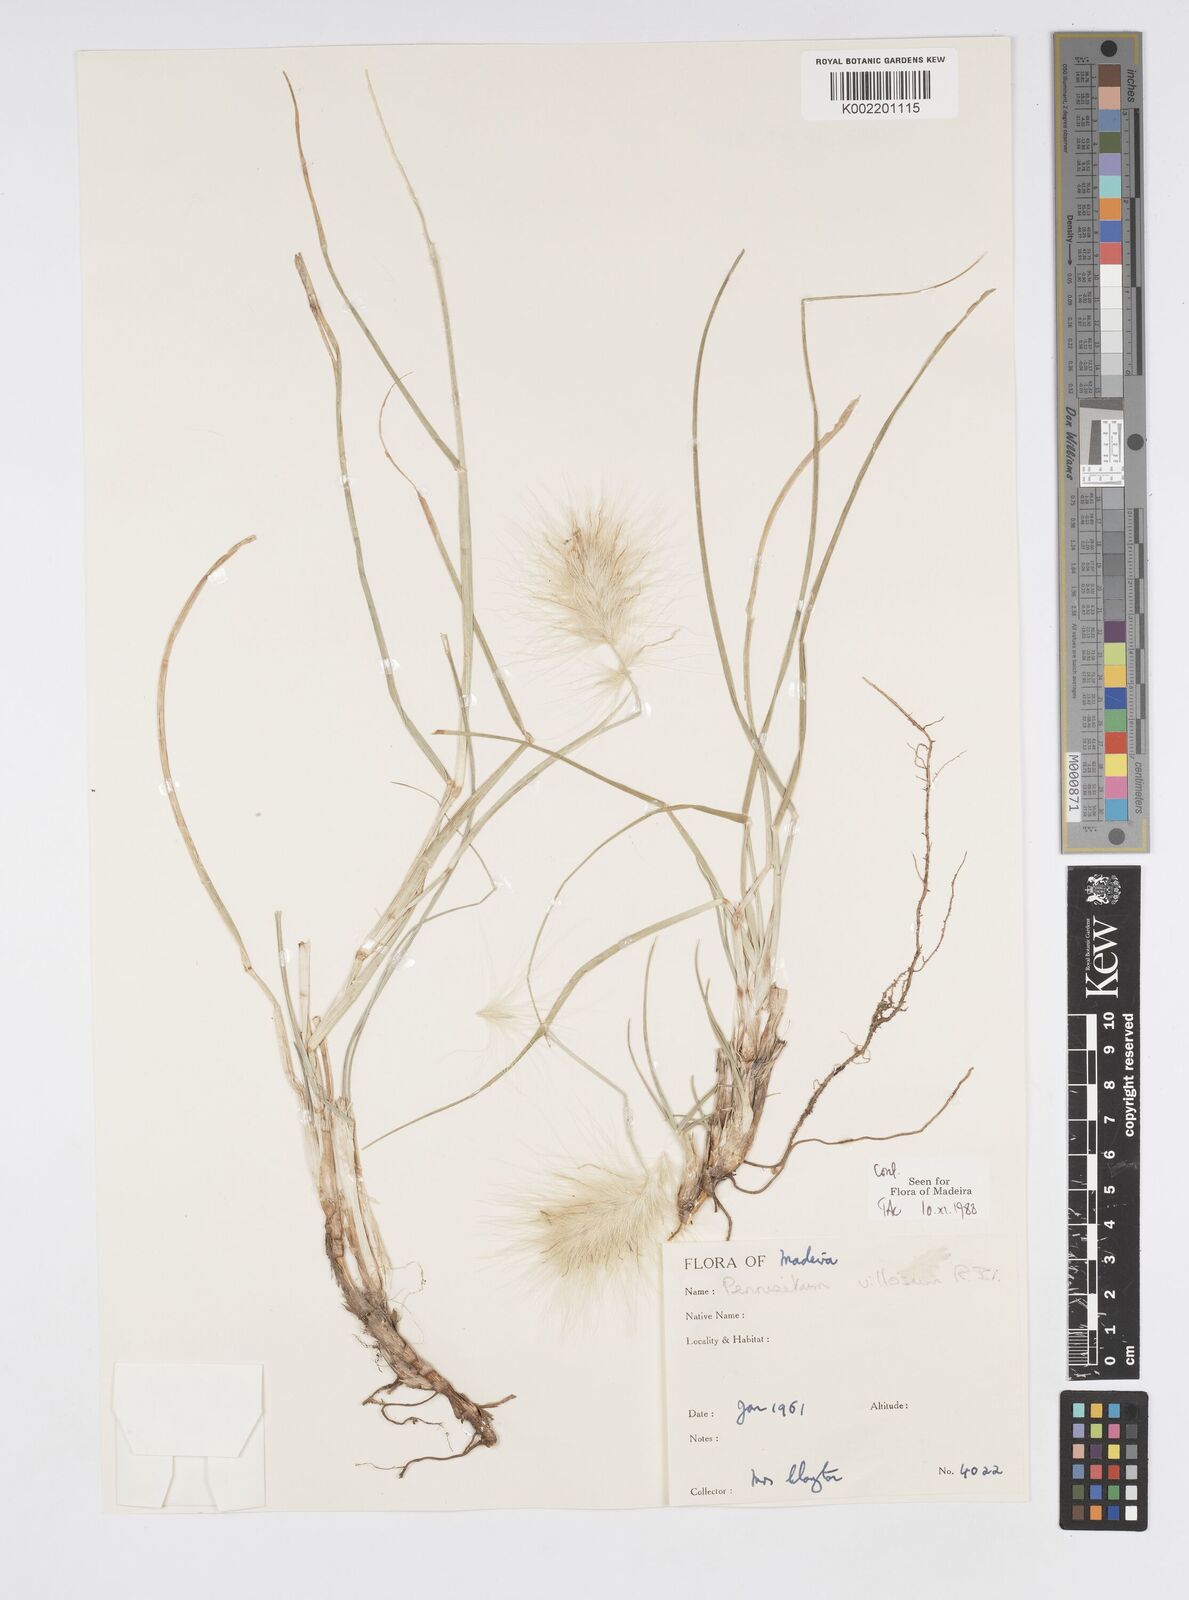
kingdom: Plantae
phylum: Tracheophyta
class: Liliopsida
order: Poales
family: Poaceae
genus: Cenchrus
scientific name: Cenchrus longisetus
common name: Feathertop
